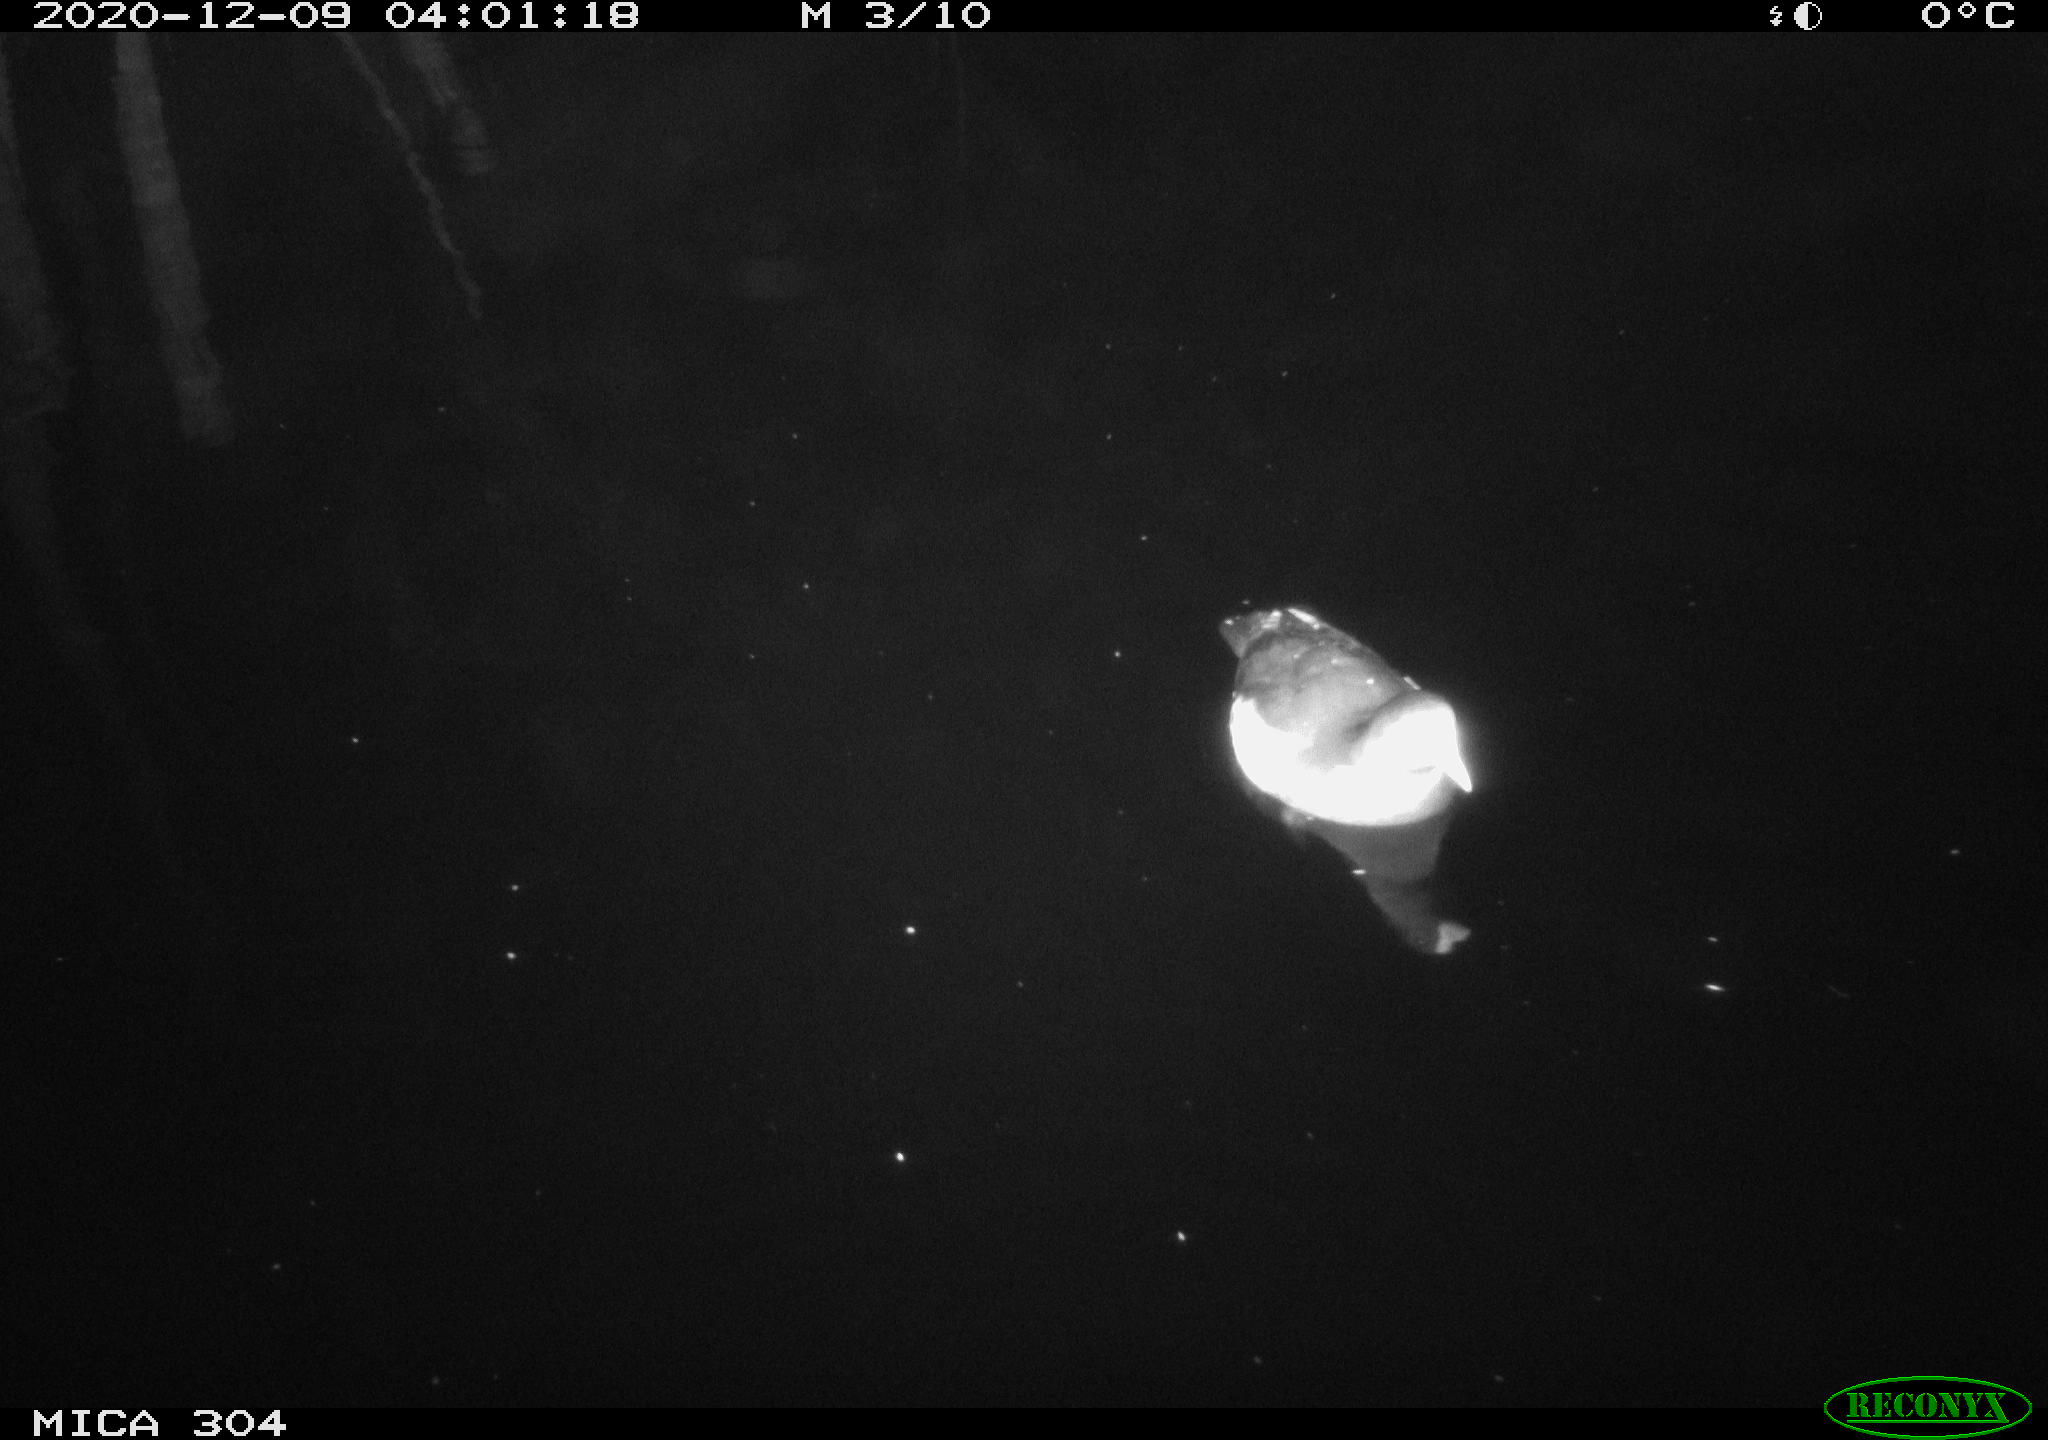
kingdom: Animalia
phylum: Chordata
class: Aves
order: Gruiformes
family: Rallidae
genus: Gallinula
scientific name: Gallinula chloropus
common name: Common moorhen
